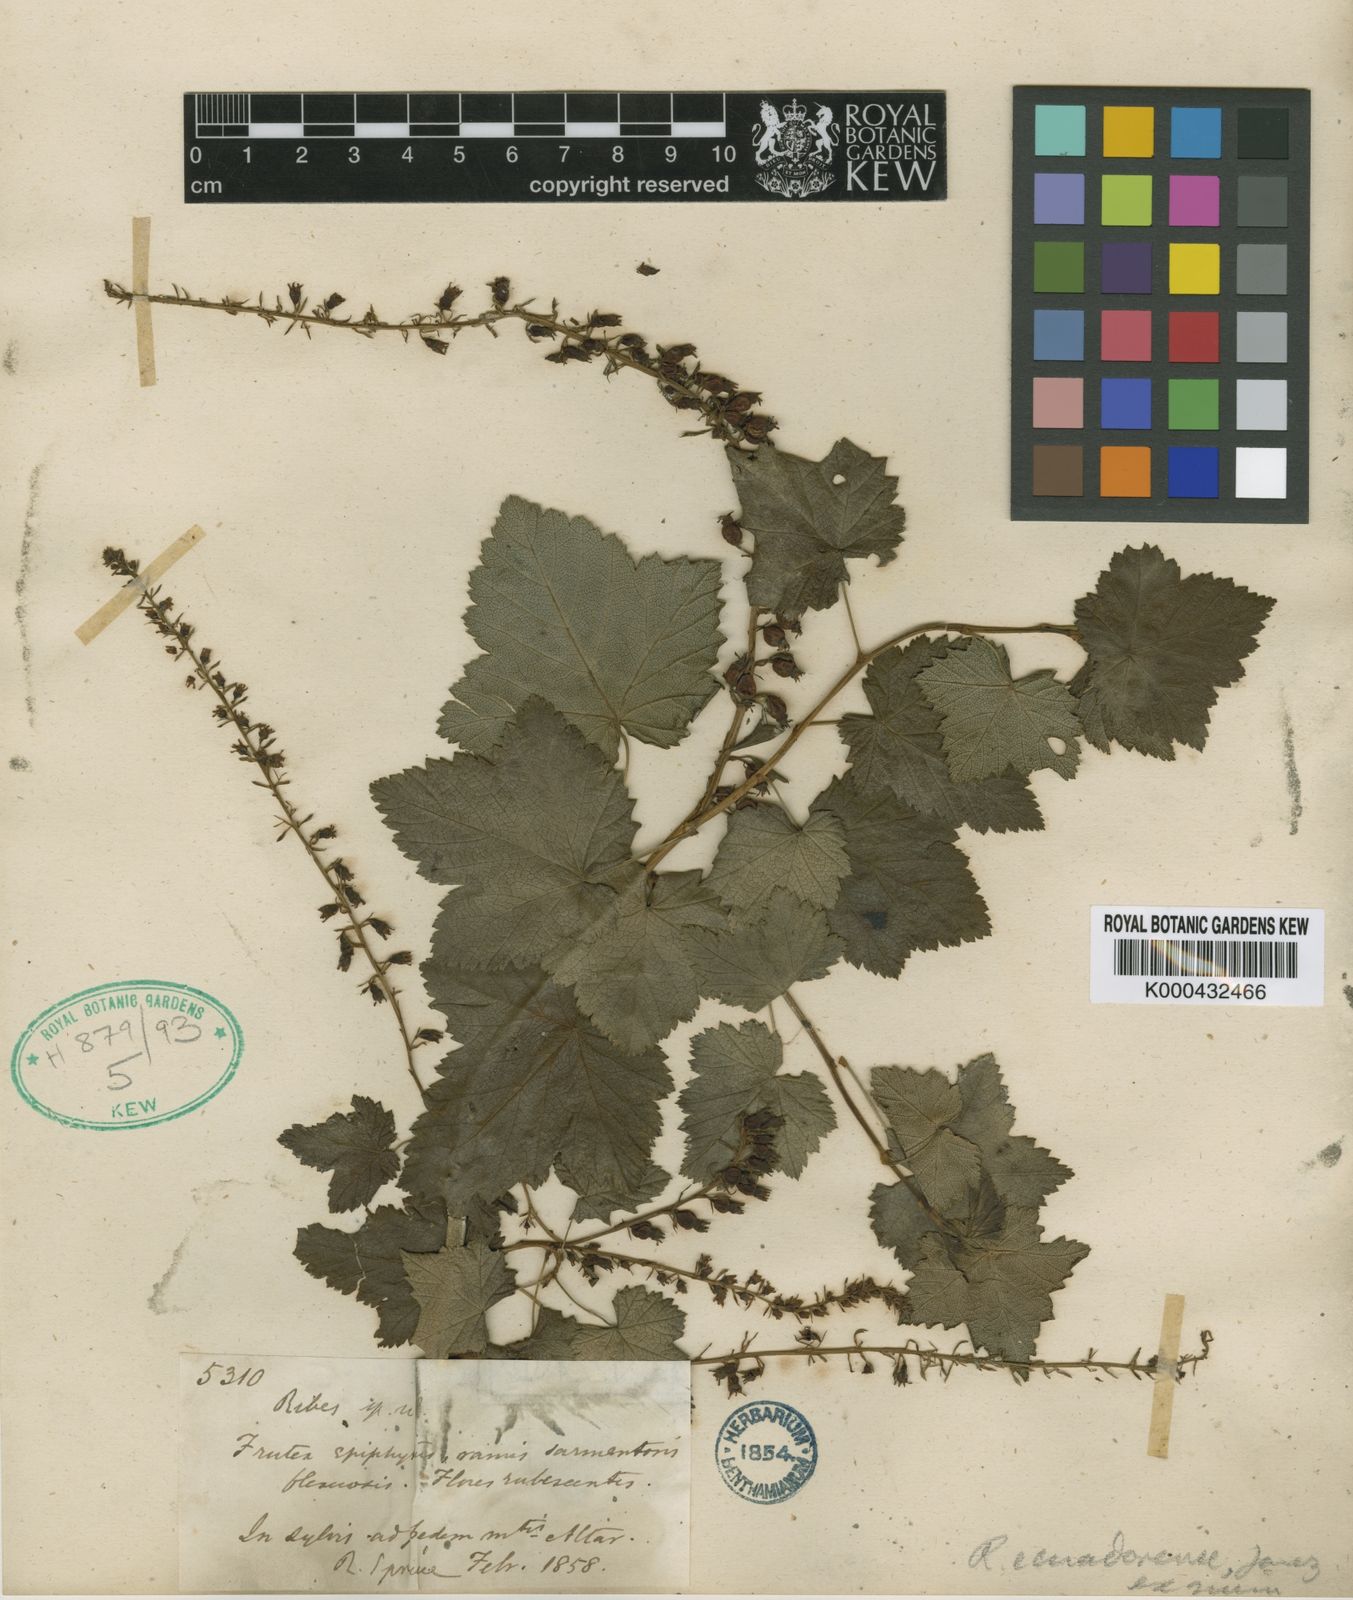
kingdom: Plantae
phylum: Tracheophyta
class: Magnoliopsida
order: Saxifragales
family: Grossulariaceae
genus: Ribes
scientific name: Ribes ecuadorense
